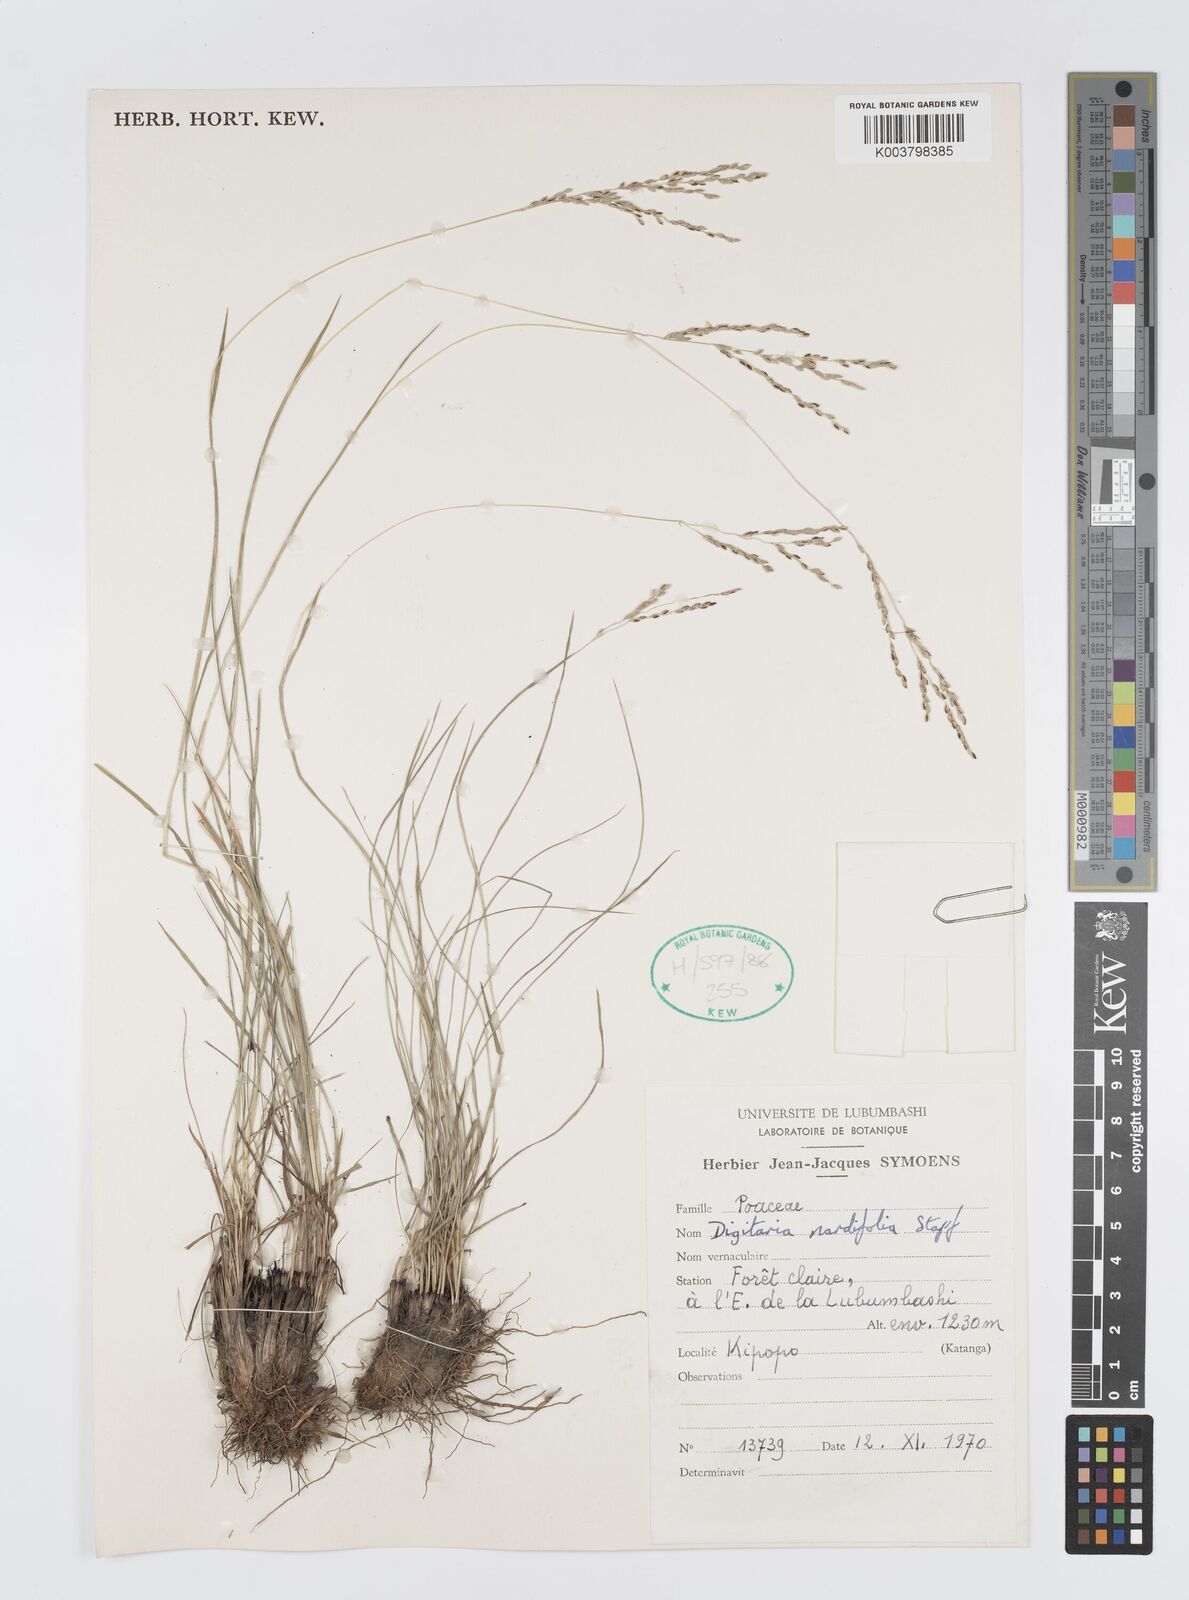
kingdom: Plantae
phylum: Tracheophyta
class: Liliopsida
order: Poales
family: Poaceae
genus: Digitaria
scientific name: Digitaria setifolia
